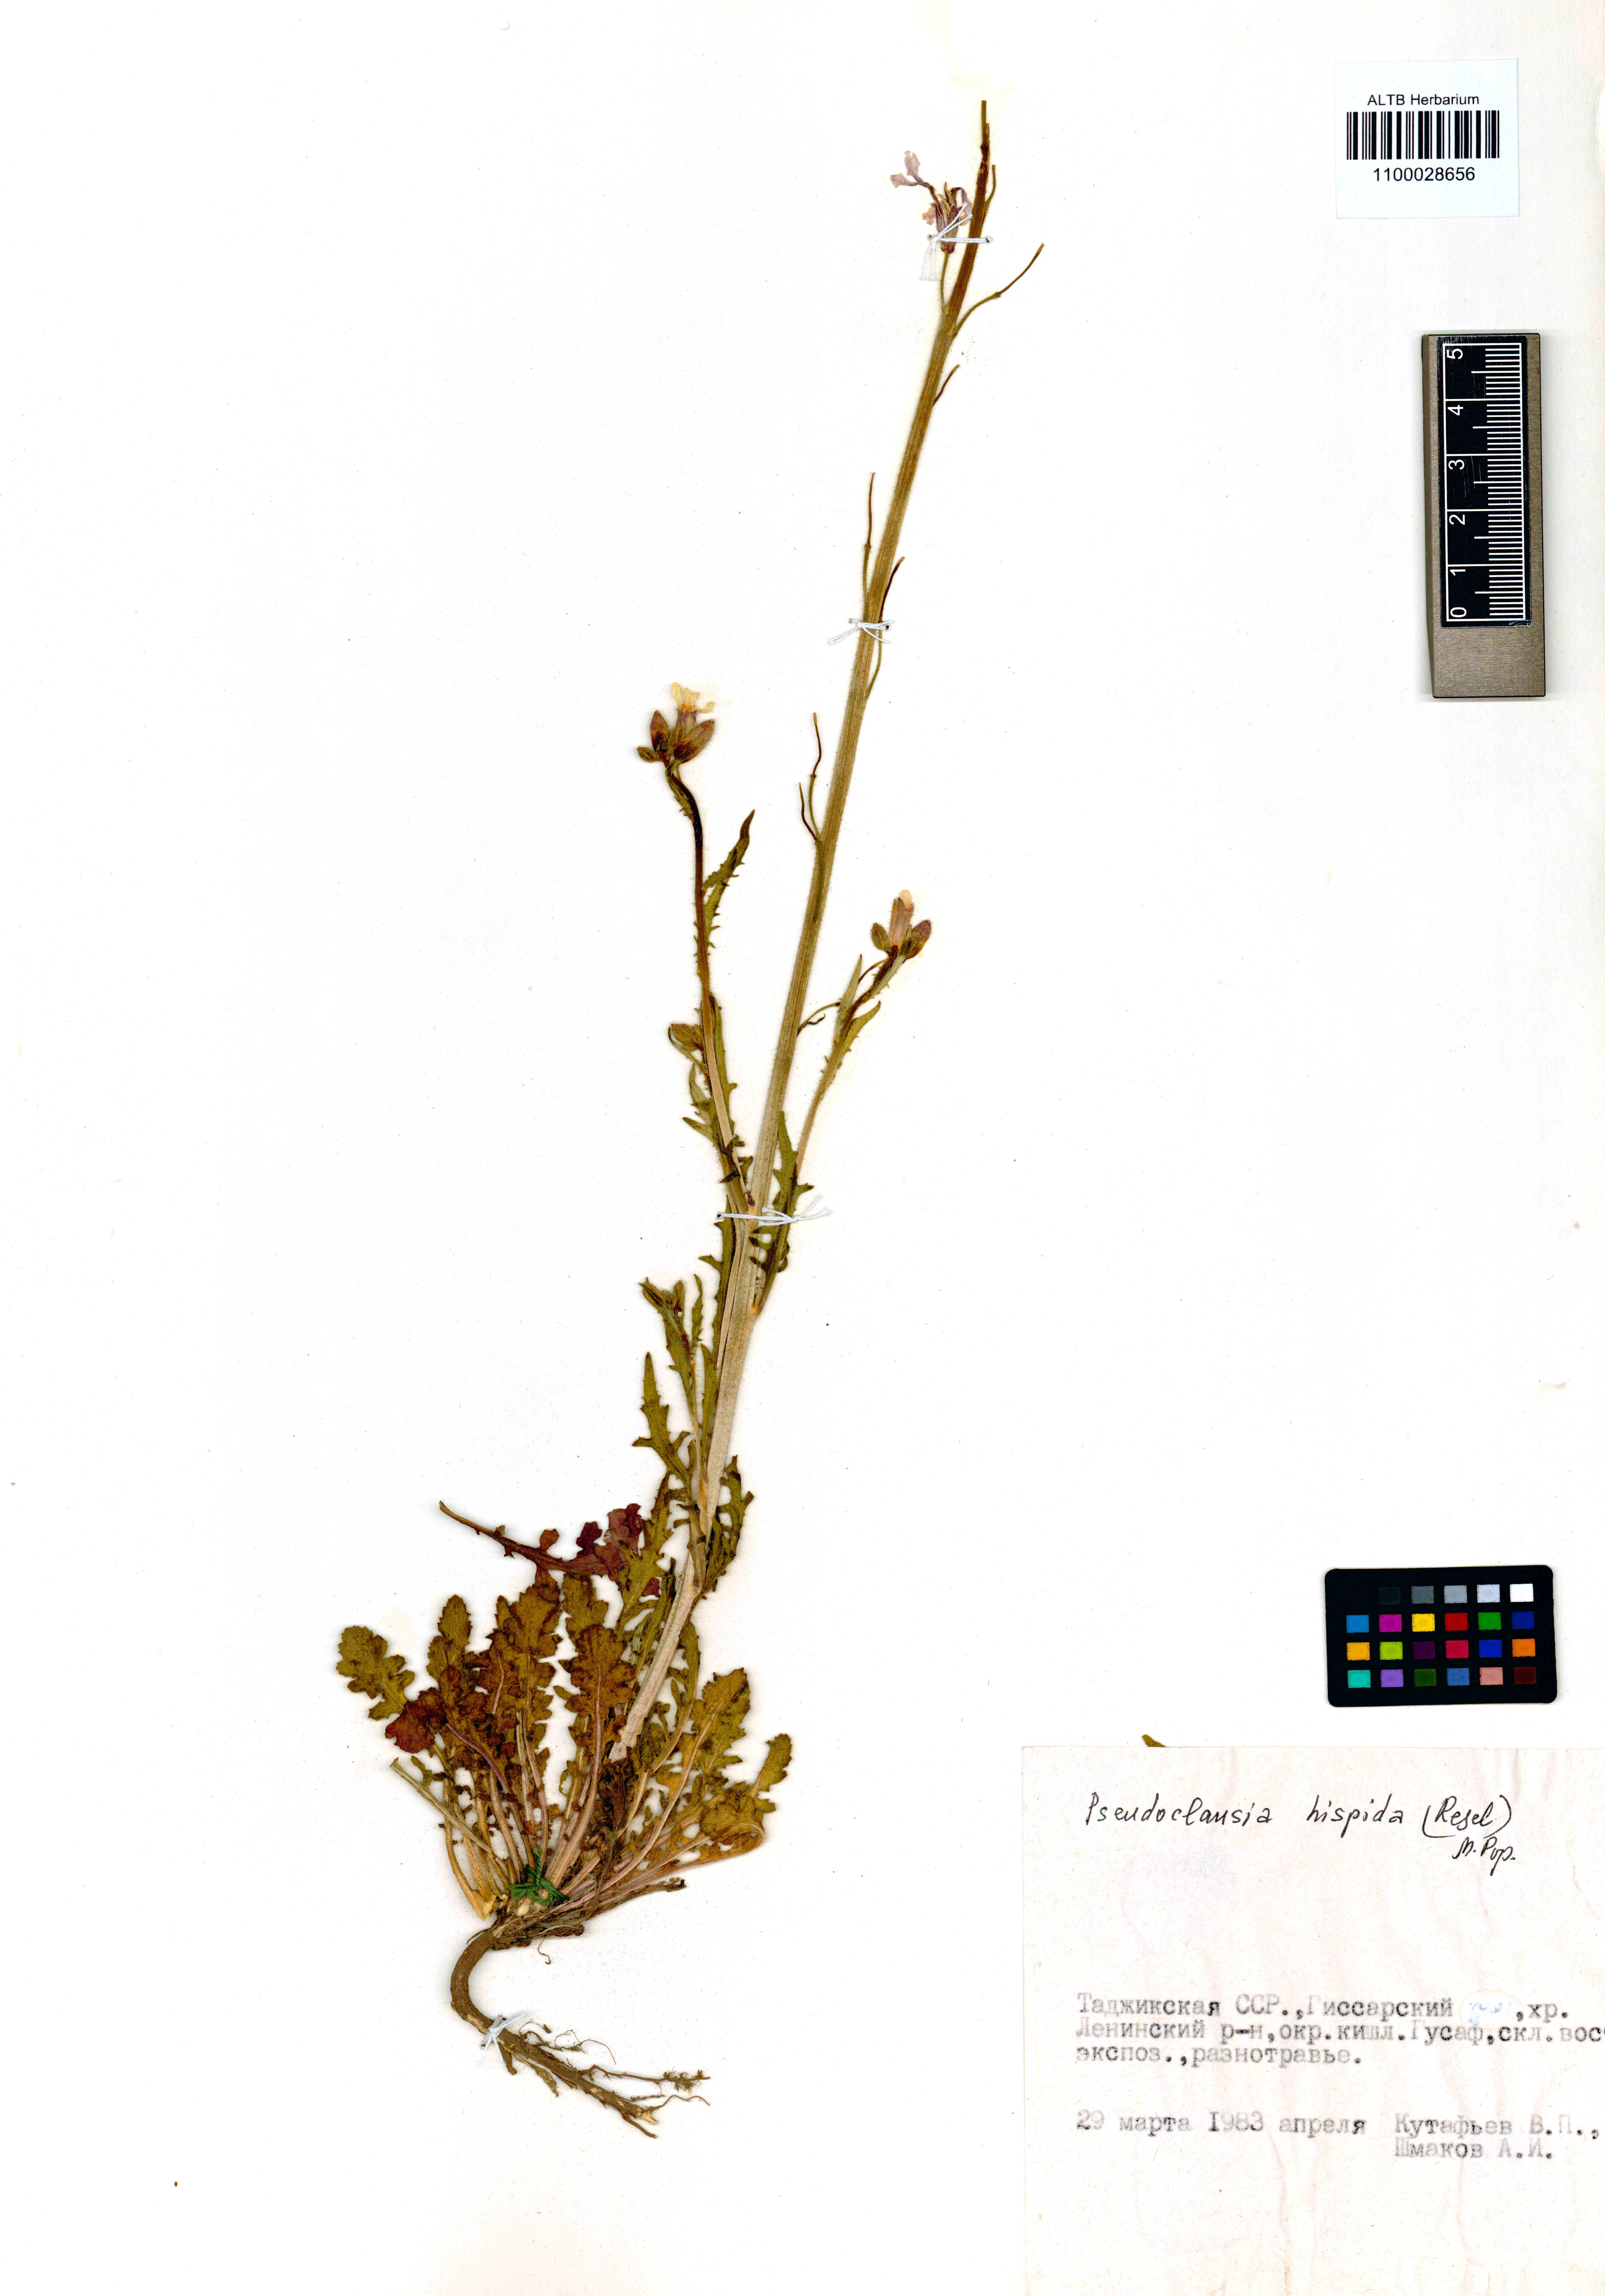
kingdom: Plantae
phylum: Tracheophyta
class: Magnoliopsida
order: Brassicales
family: Brassicaceae
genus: Parrya
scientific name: Parrya hispida
